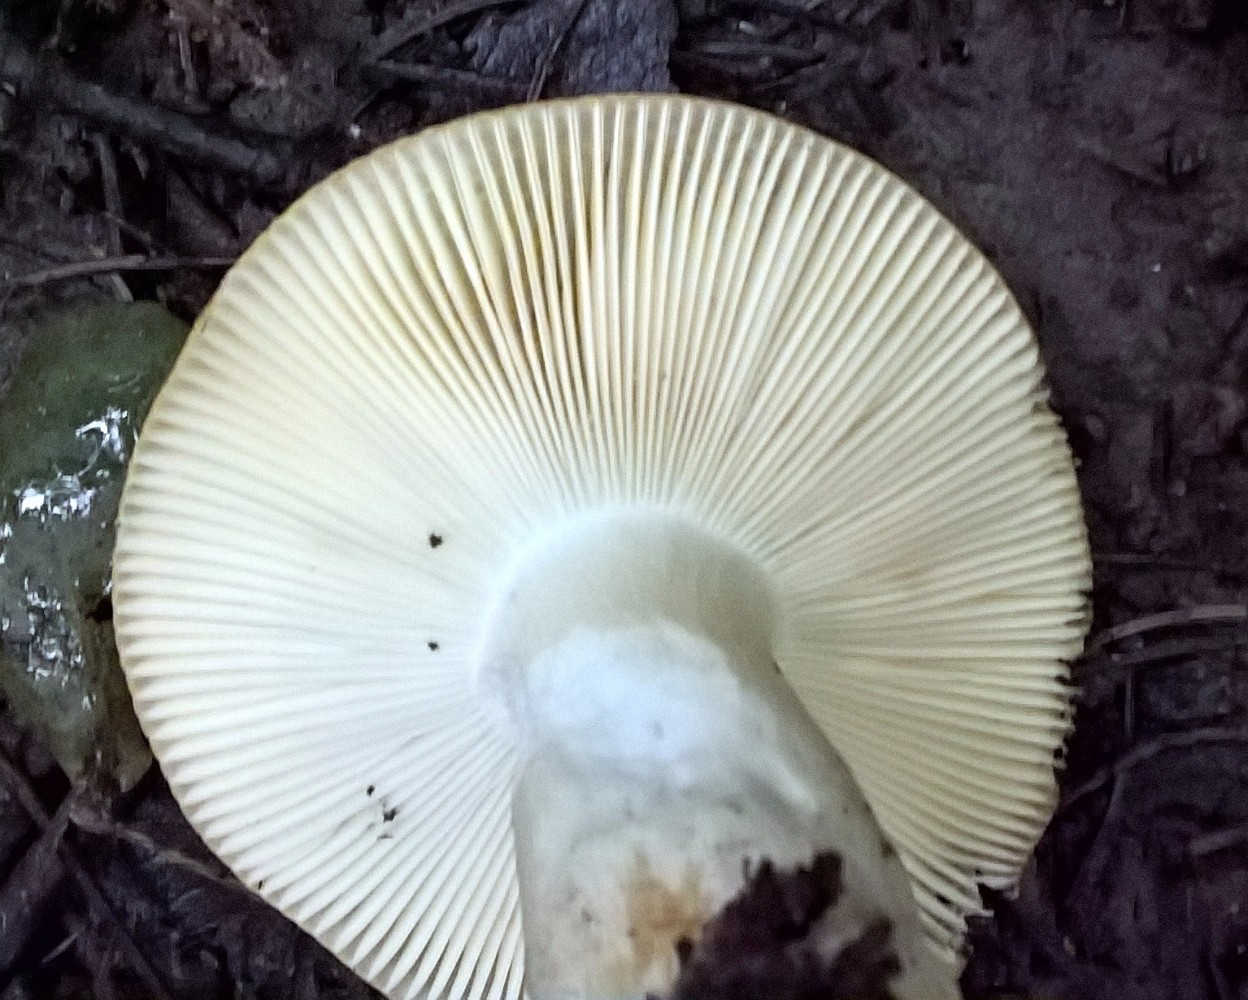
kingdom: Fungi
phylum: Basidiomycota
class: Agaricomycetes
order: Russulales
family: Russulaceae
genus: Russula
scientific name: Russula ochroleuca
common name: okkergul skørhat
